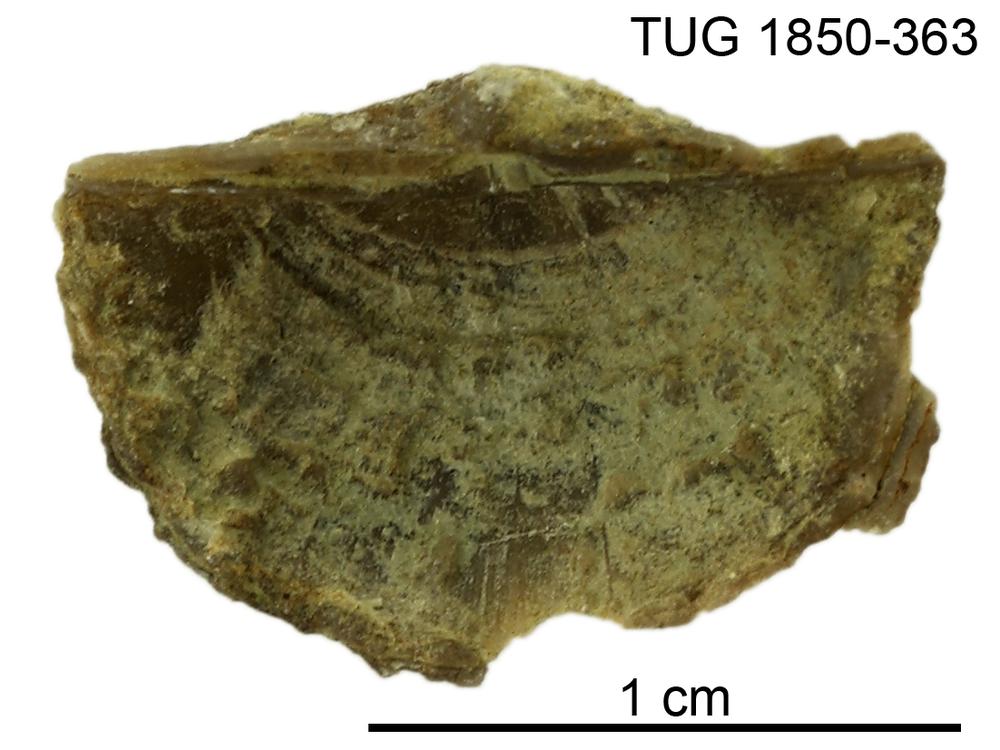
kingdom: Animalia
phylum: Brachiopoda
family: Oldhaminidae
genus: Eoplectodonta
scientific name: Eoplectodonta
